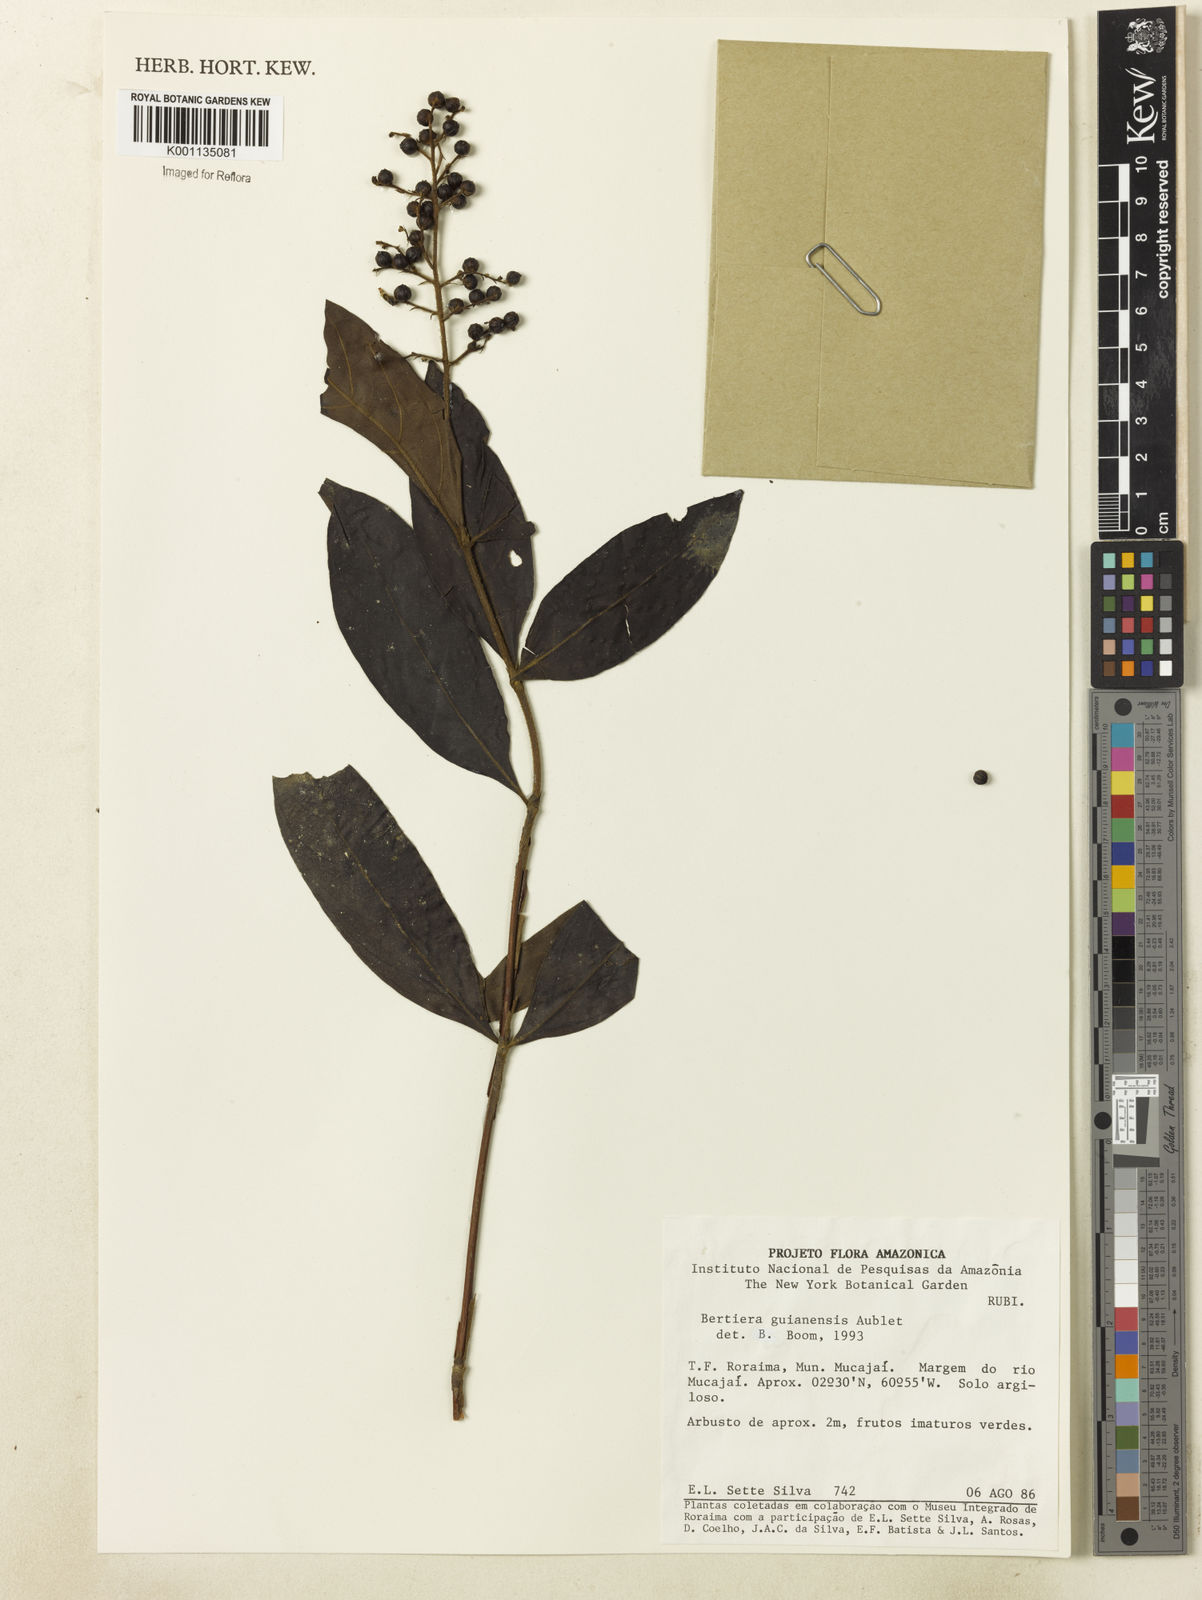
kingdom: Plantae
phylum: Tracheophyta
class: Magnoliopsida
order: Gentianales
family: Rubiaceae
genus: Bertiera
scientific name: Bertiera guianensis
